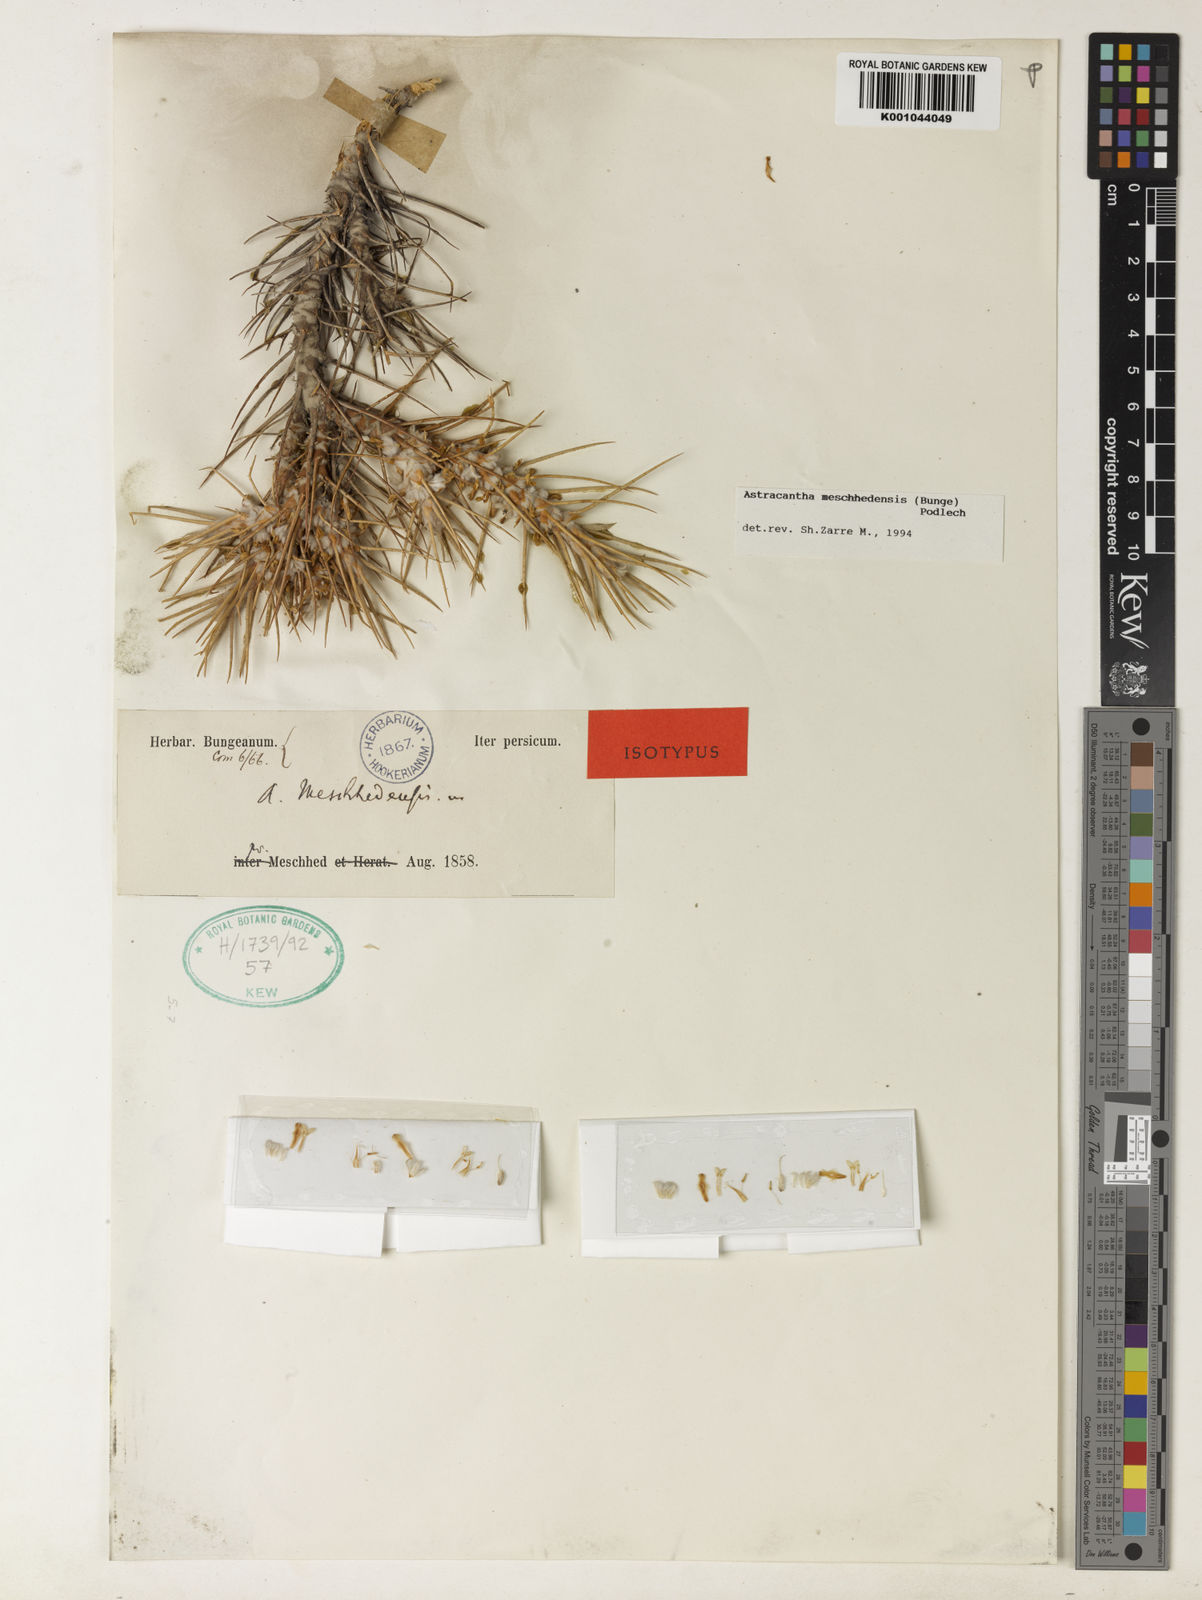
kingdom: Plantae
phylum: Tracheophyta
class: Magnoliopsida
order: Fabales
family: Fabaceae
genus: Astragalus
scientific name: Astragalus verus
